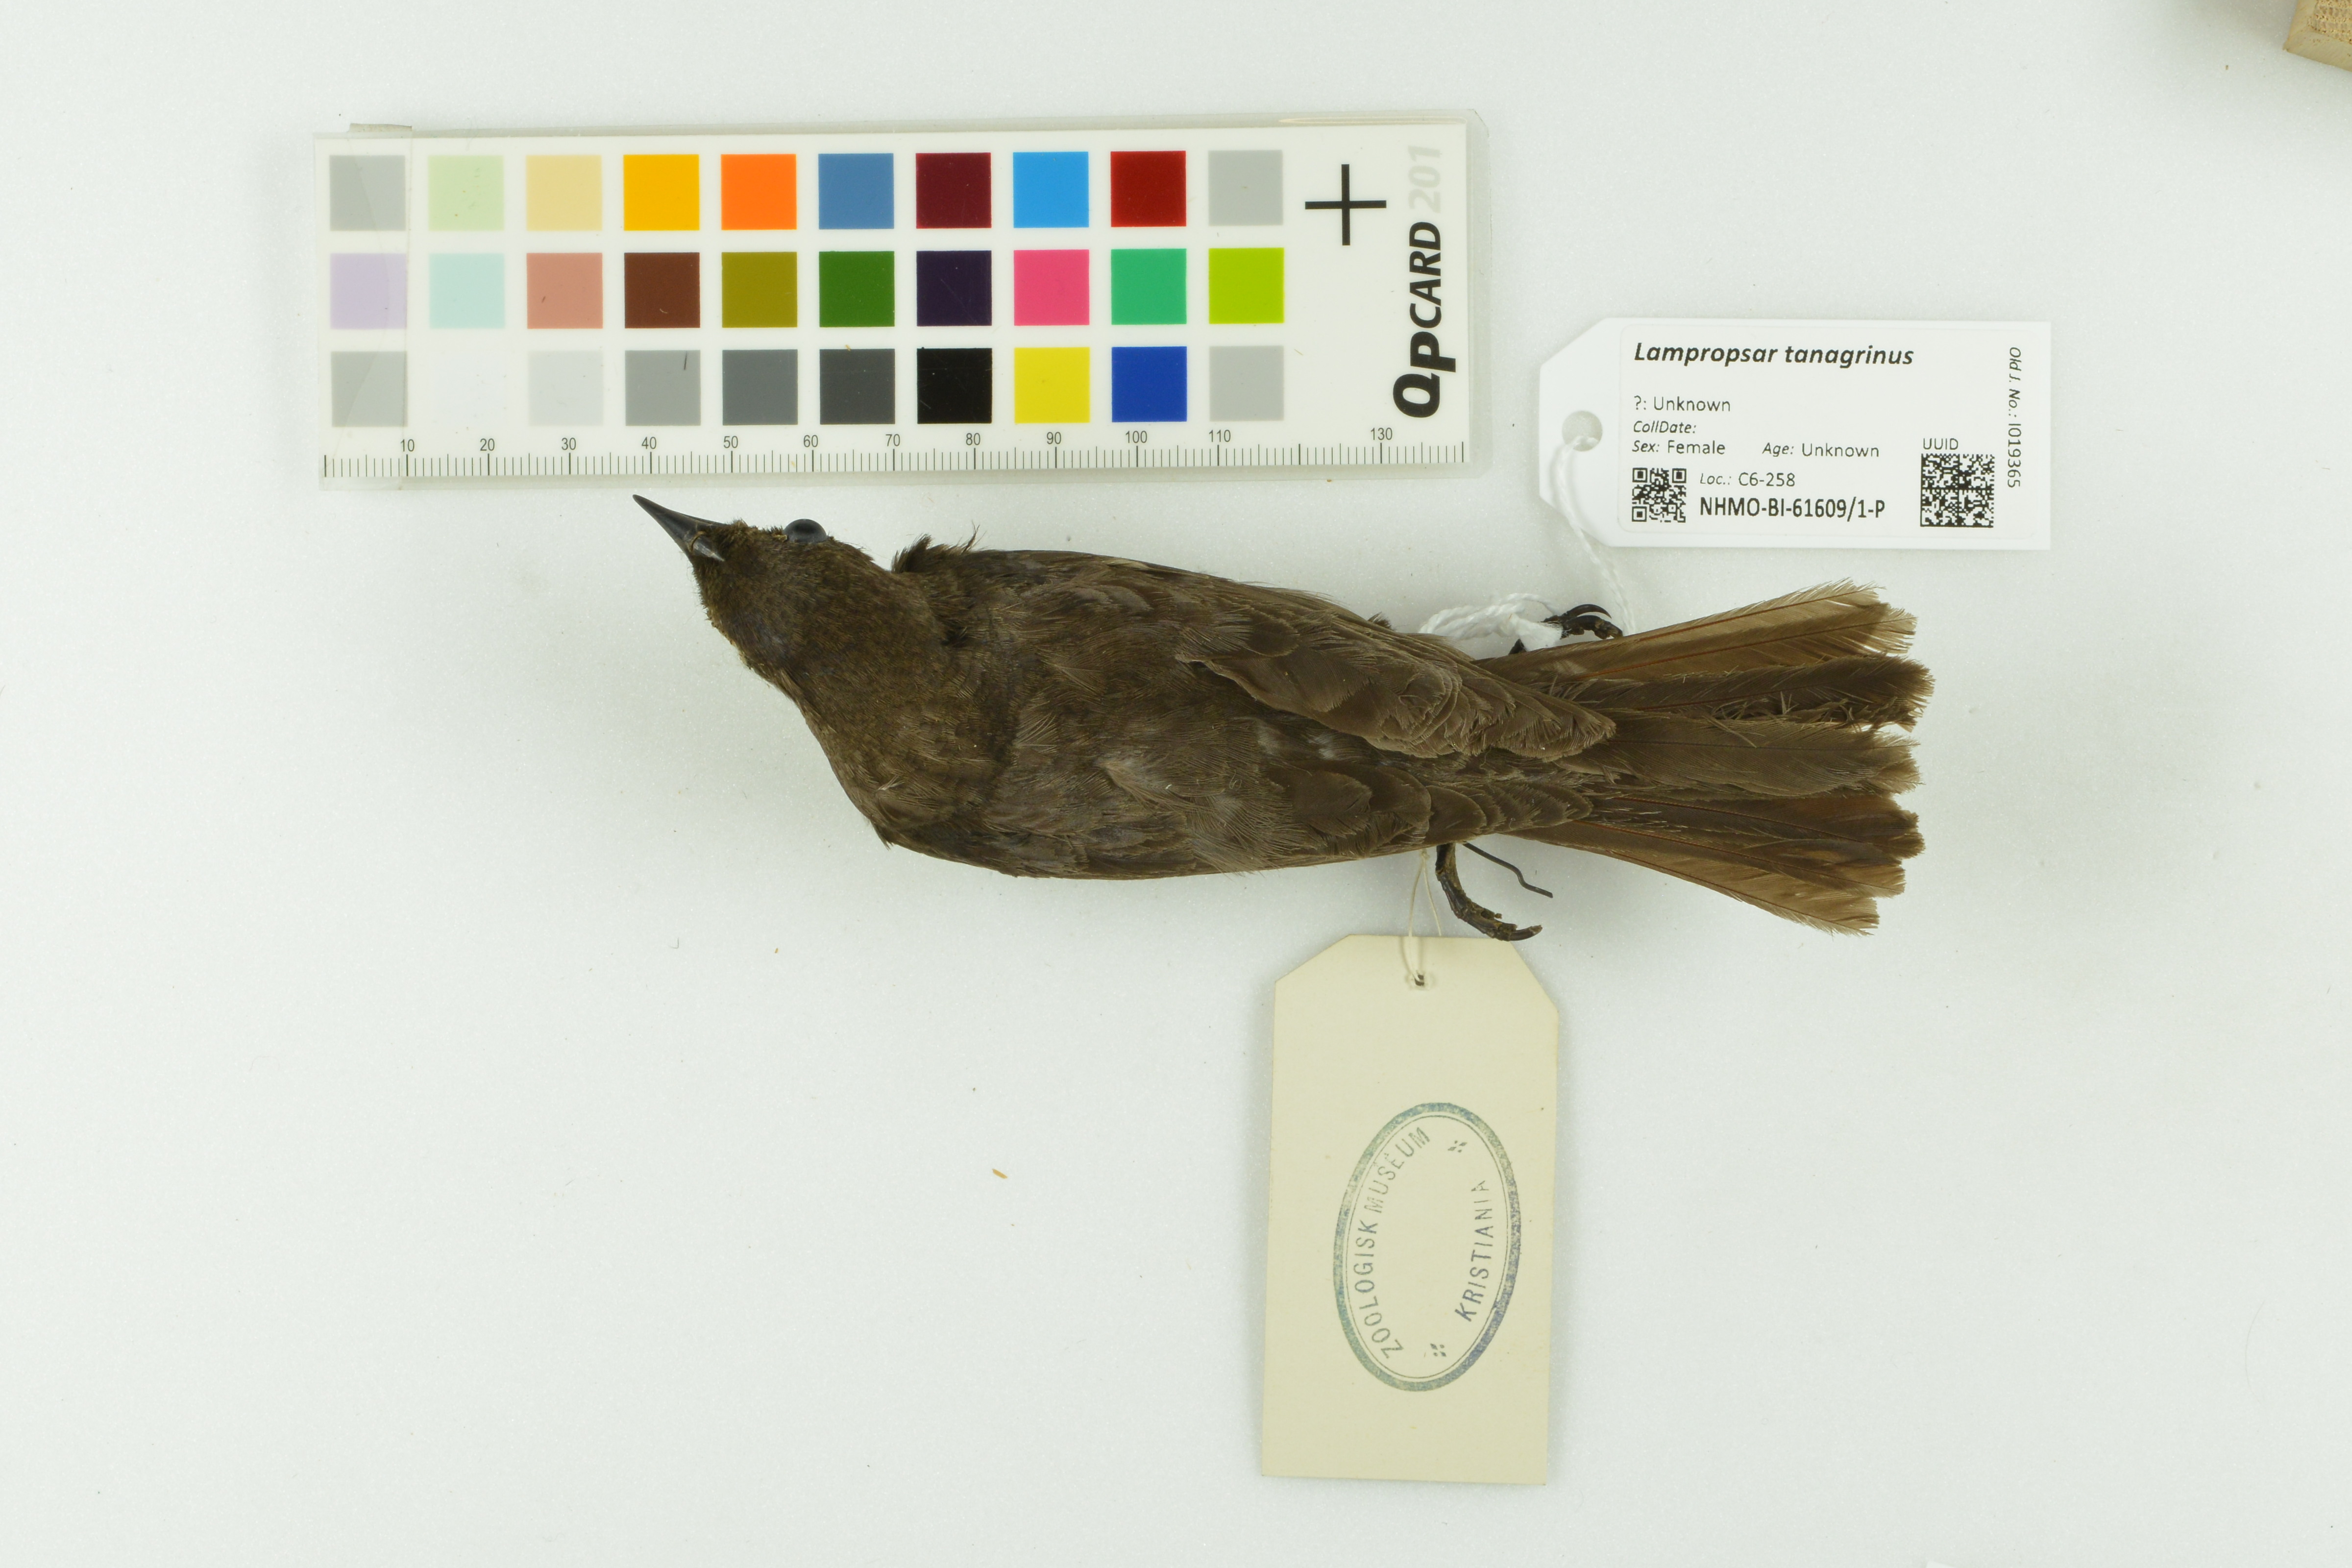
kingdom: Animalia
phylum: Chordata
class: Aves
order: Passeriformes
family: Icteridae
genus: Lampropsar
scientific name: Lampropsar tanagrinus
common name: Velvet-fronted grackle
